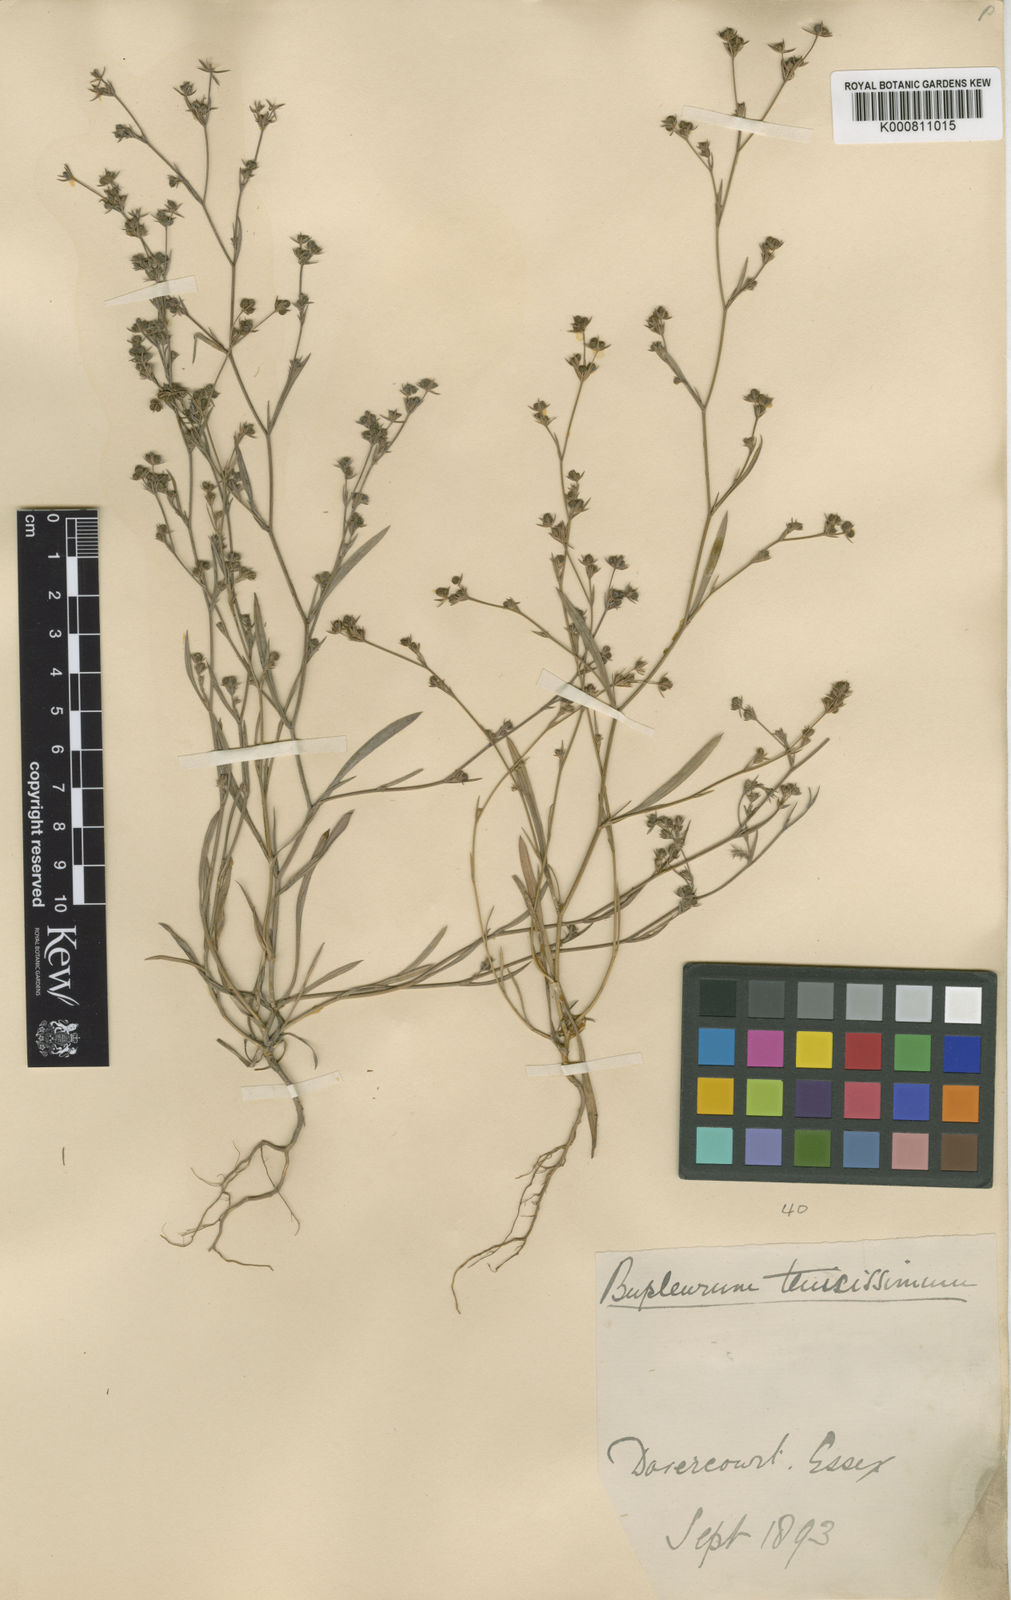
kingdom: Plantae
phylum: Tracheophyta
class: Magnoliopsida
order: Apiales
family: Apiaceae
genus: Bupleurum
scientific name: Bupleurum tenuissimum
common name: Slender hare's-ear
